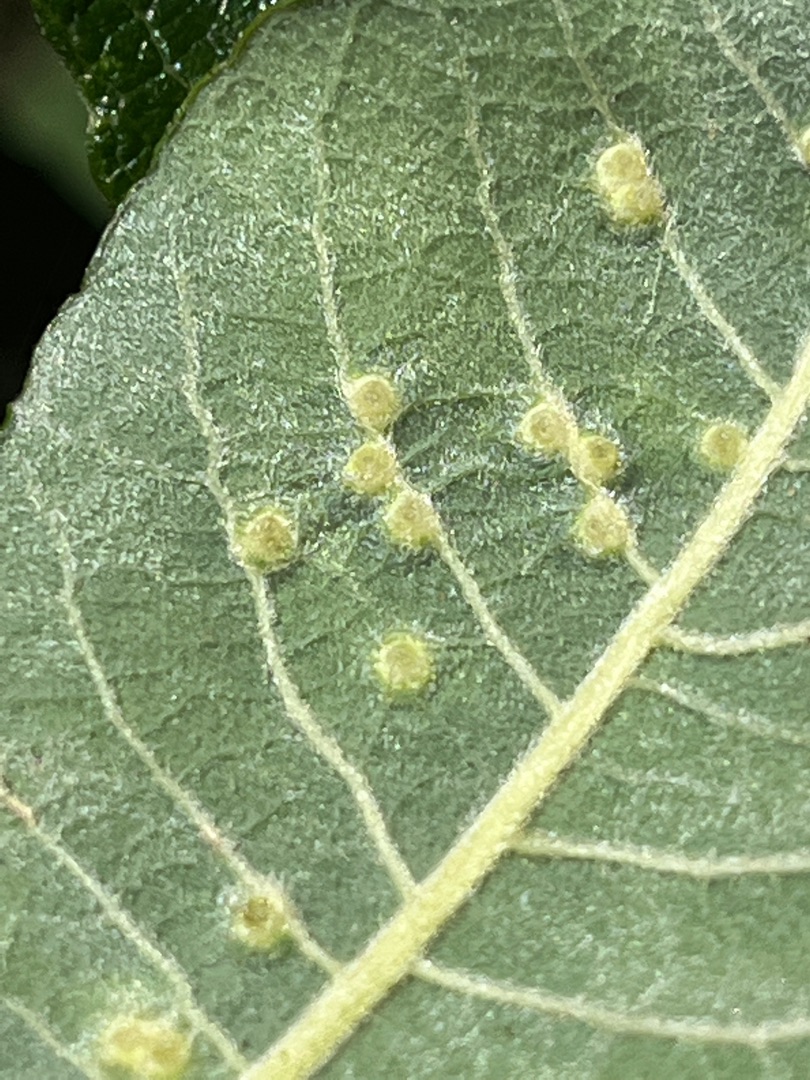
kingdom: Animalia
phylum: Arthropoda
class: Insecta
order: Diptera
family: Cecidomyiidae
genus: Iteomyia
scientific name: Iteomyia capreae
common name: Lille seljebladgalmyg
